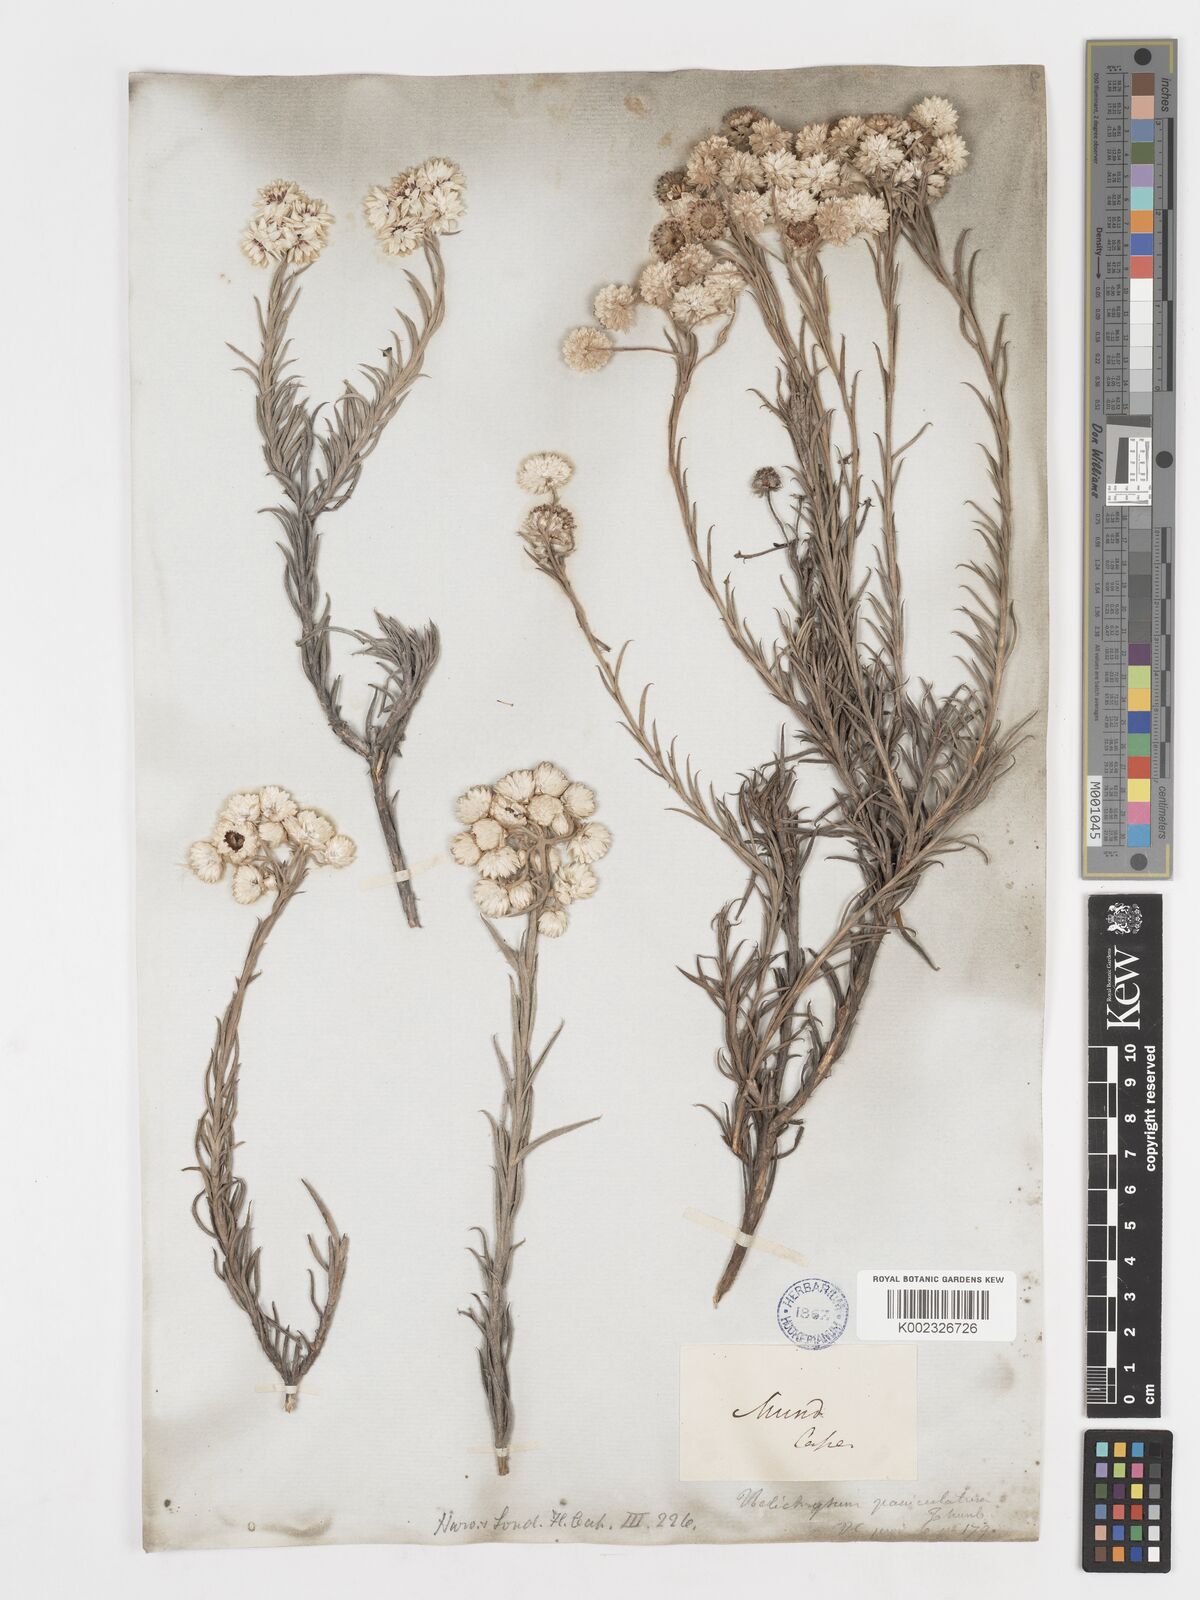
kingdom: Plantae
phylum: Tracheophyta
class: Magnoliopsida
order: Asterales
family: Asteraceae
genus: Achyranthemum
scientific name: Achyranthemum paniculatum
